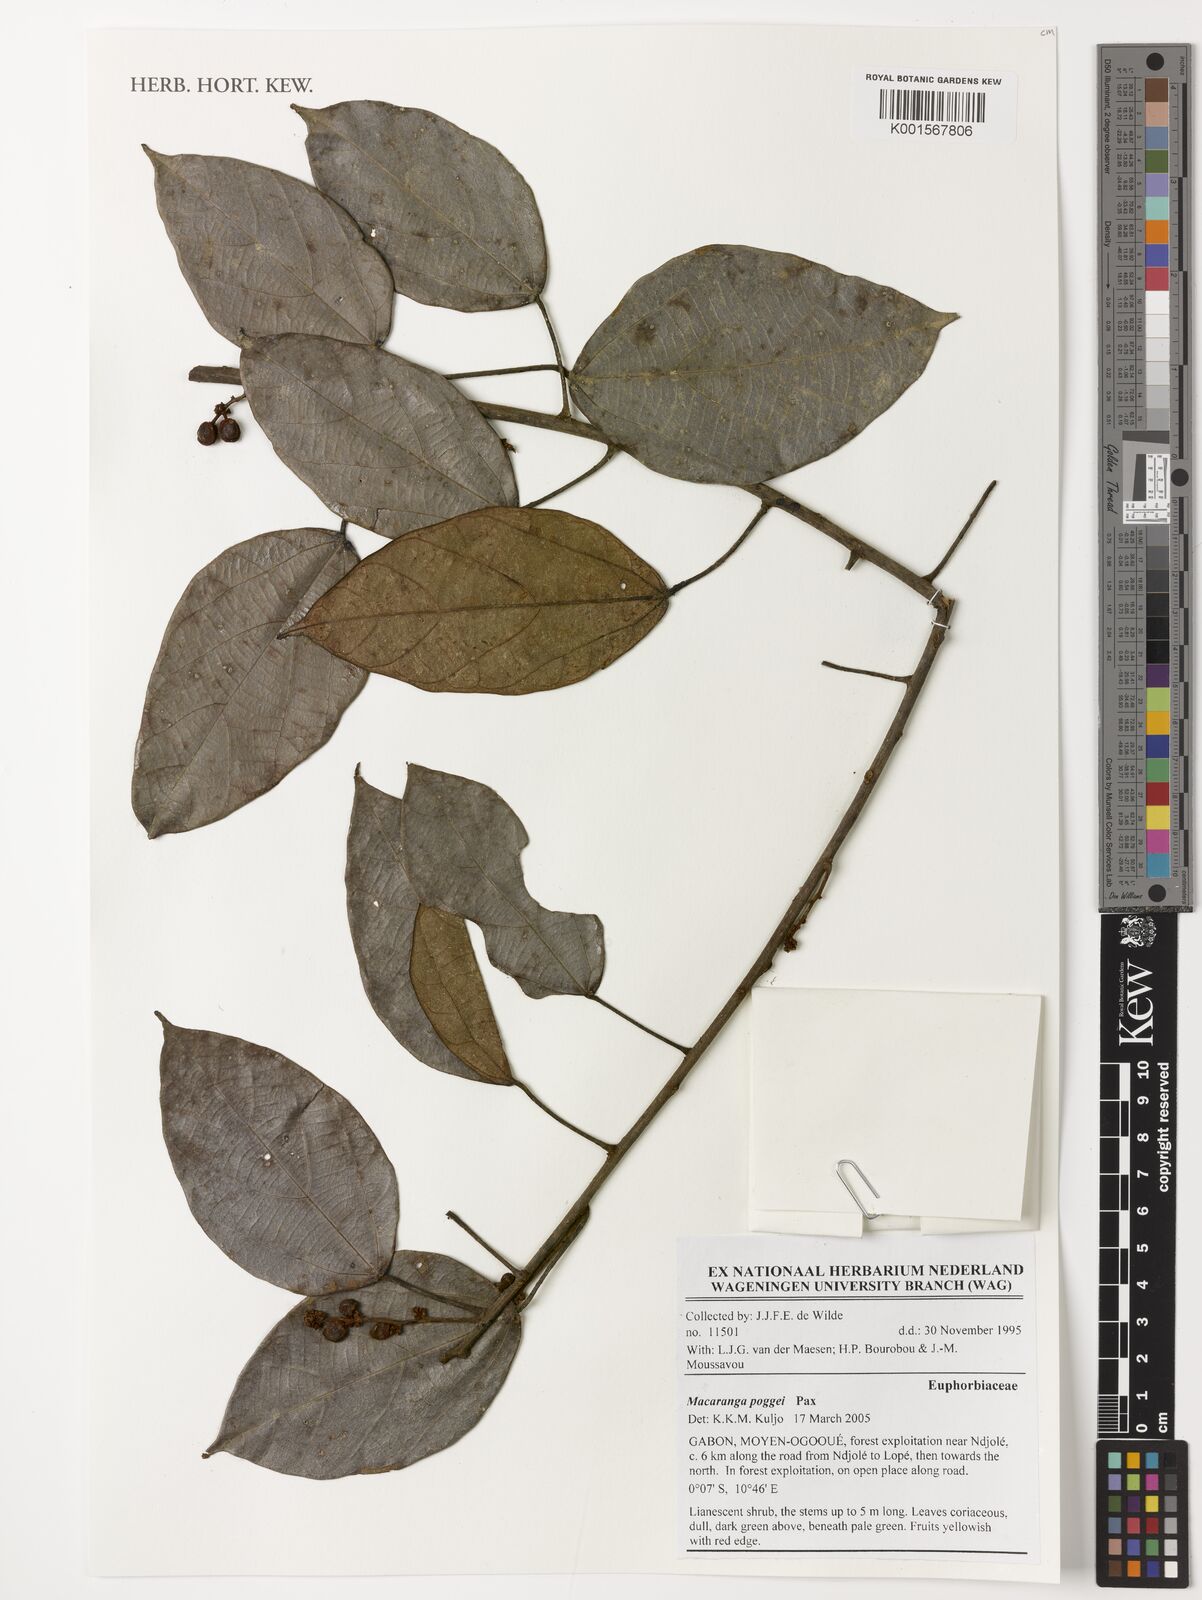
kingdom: Plantae
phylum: Tracheophyta
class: Magnoliopsida
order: Malpighiales
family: Euphorbiaceae
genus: Macaranga
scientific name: Macaranga poggei
